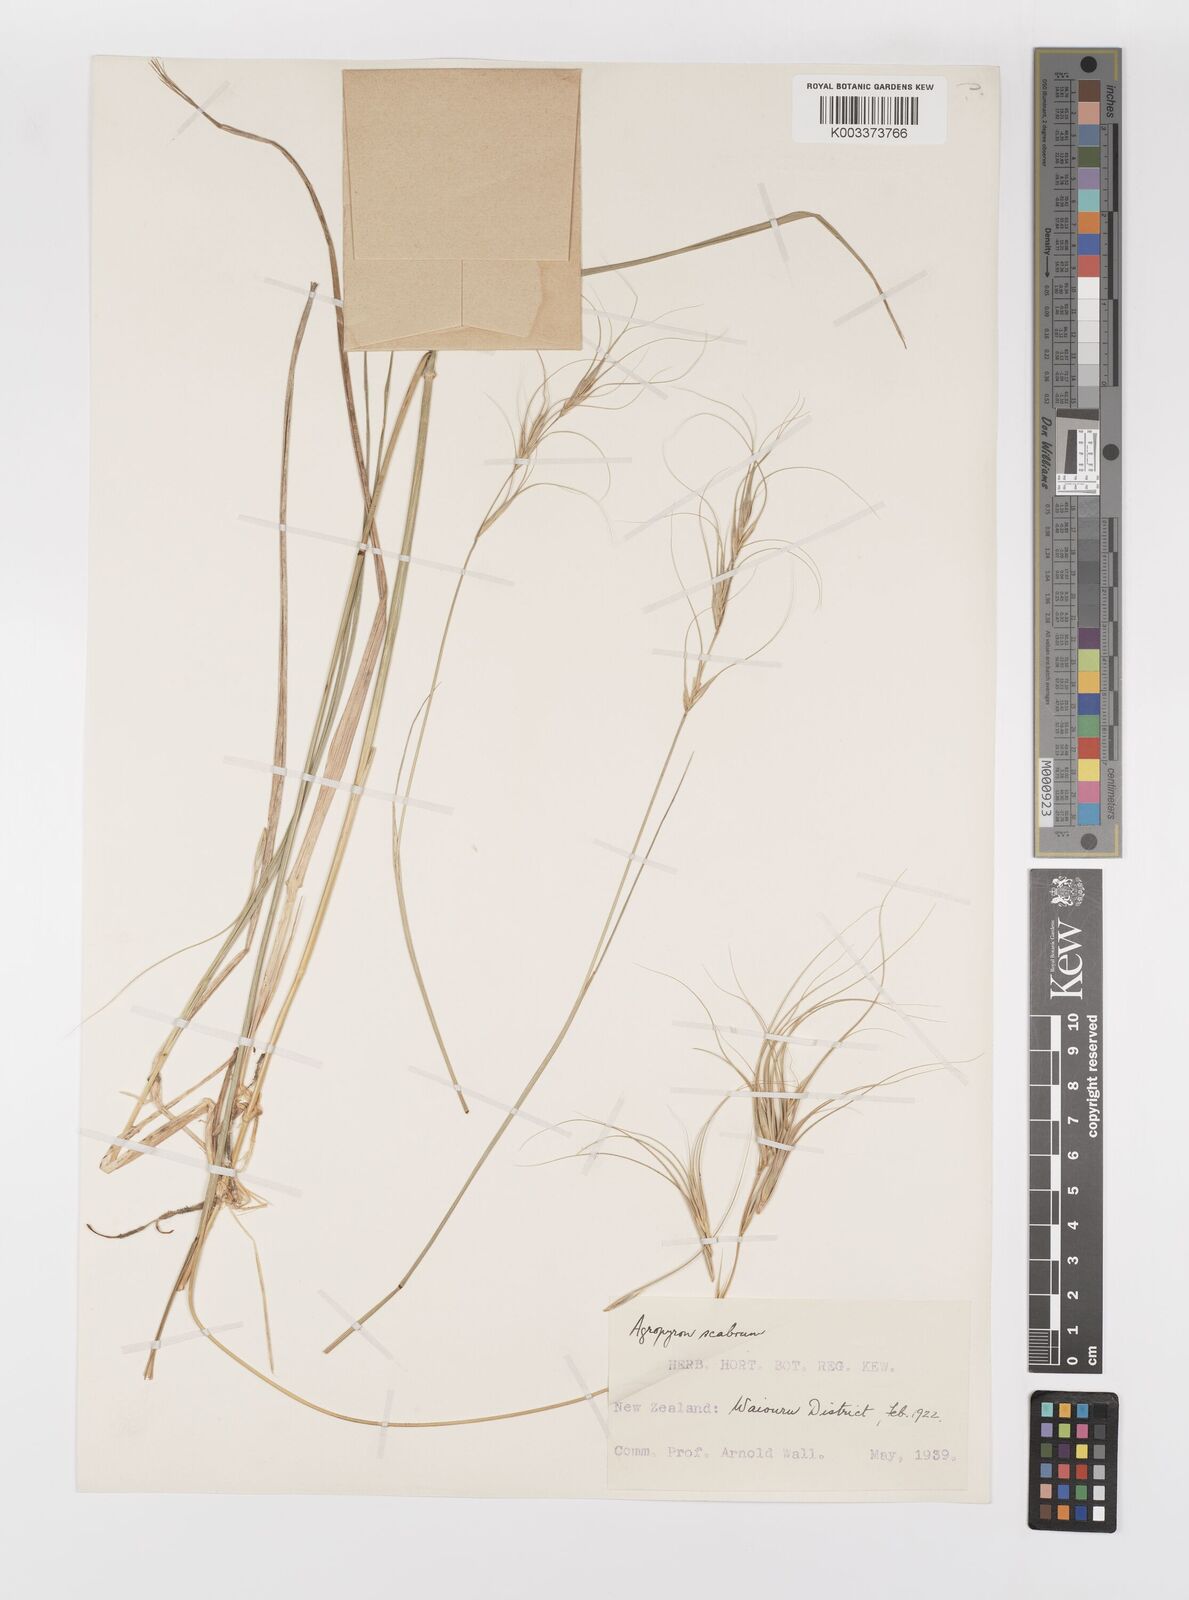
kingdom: Plantae
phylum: Tracheophyta
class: Liliopsida
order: Poales
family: Poaceae
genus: Anthosachne
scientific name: Anthosachne scabra
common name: Common wheatgrass
